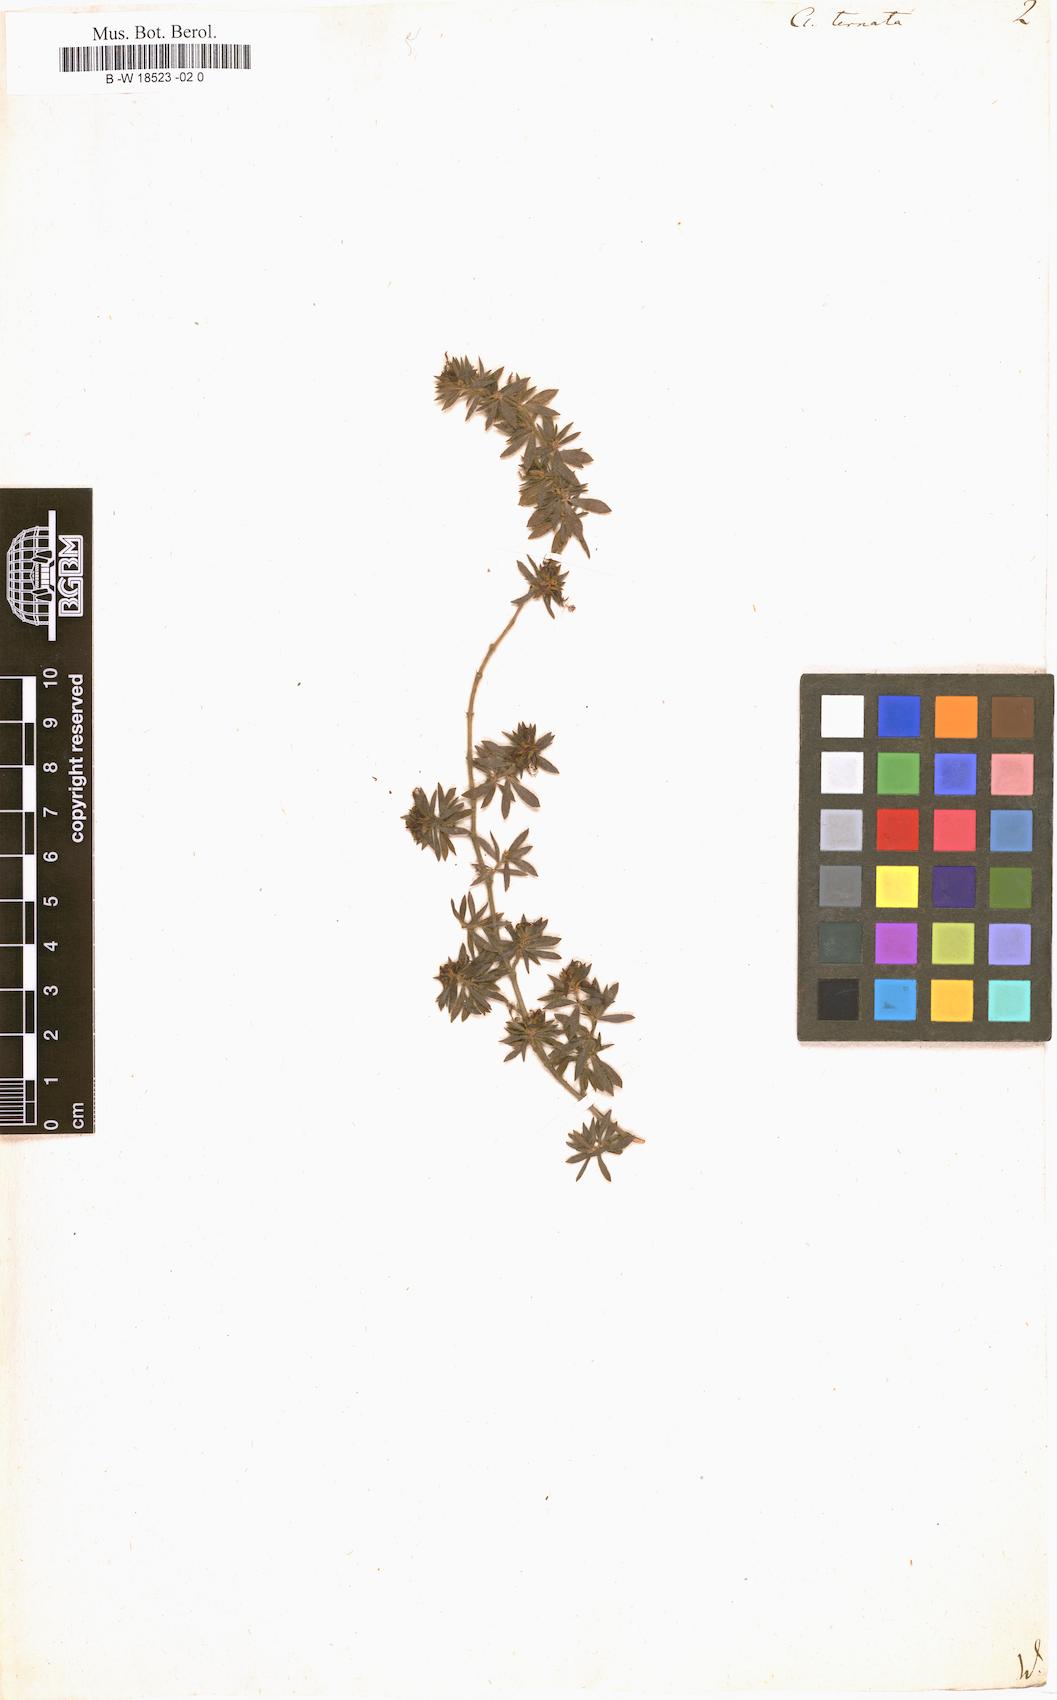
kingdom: Plantae
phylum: Tracheophyta
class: Magnoliopsida
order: Rosales
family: Rosaceae
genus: Cliffortia
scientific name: Cliffortia polygonifolia
